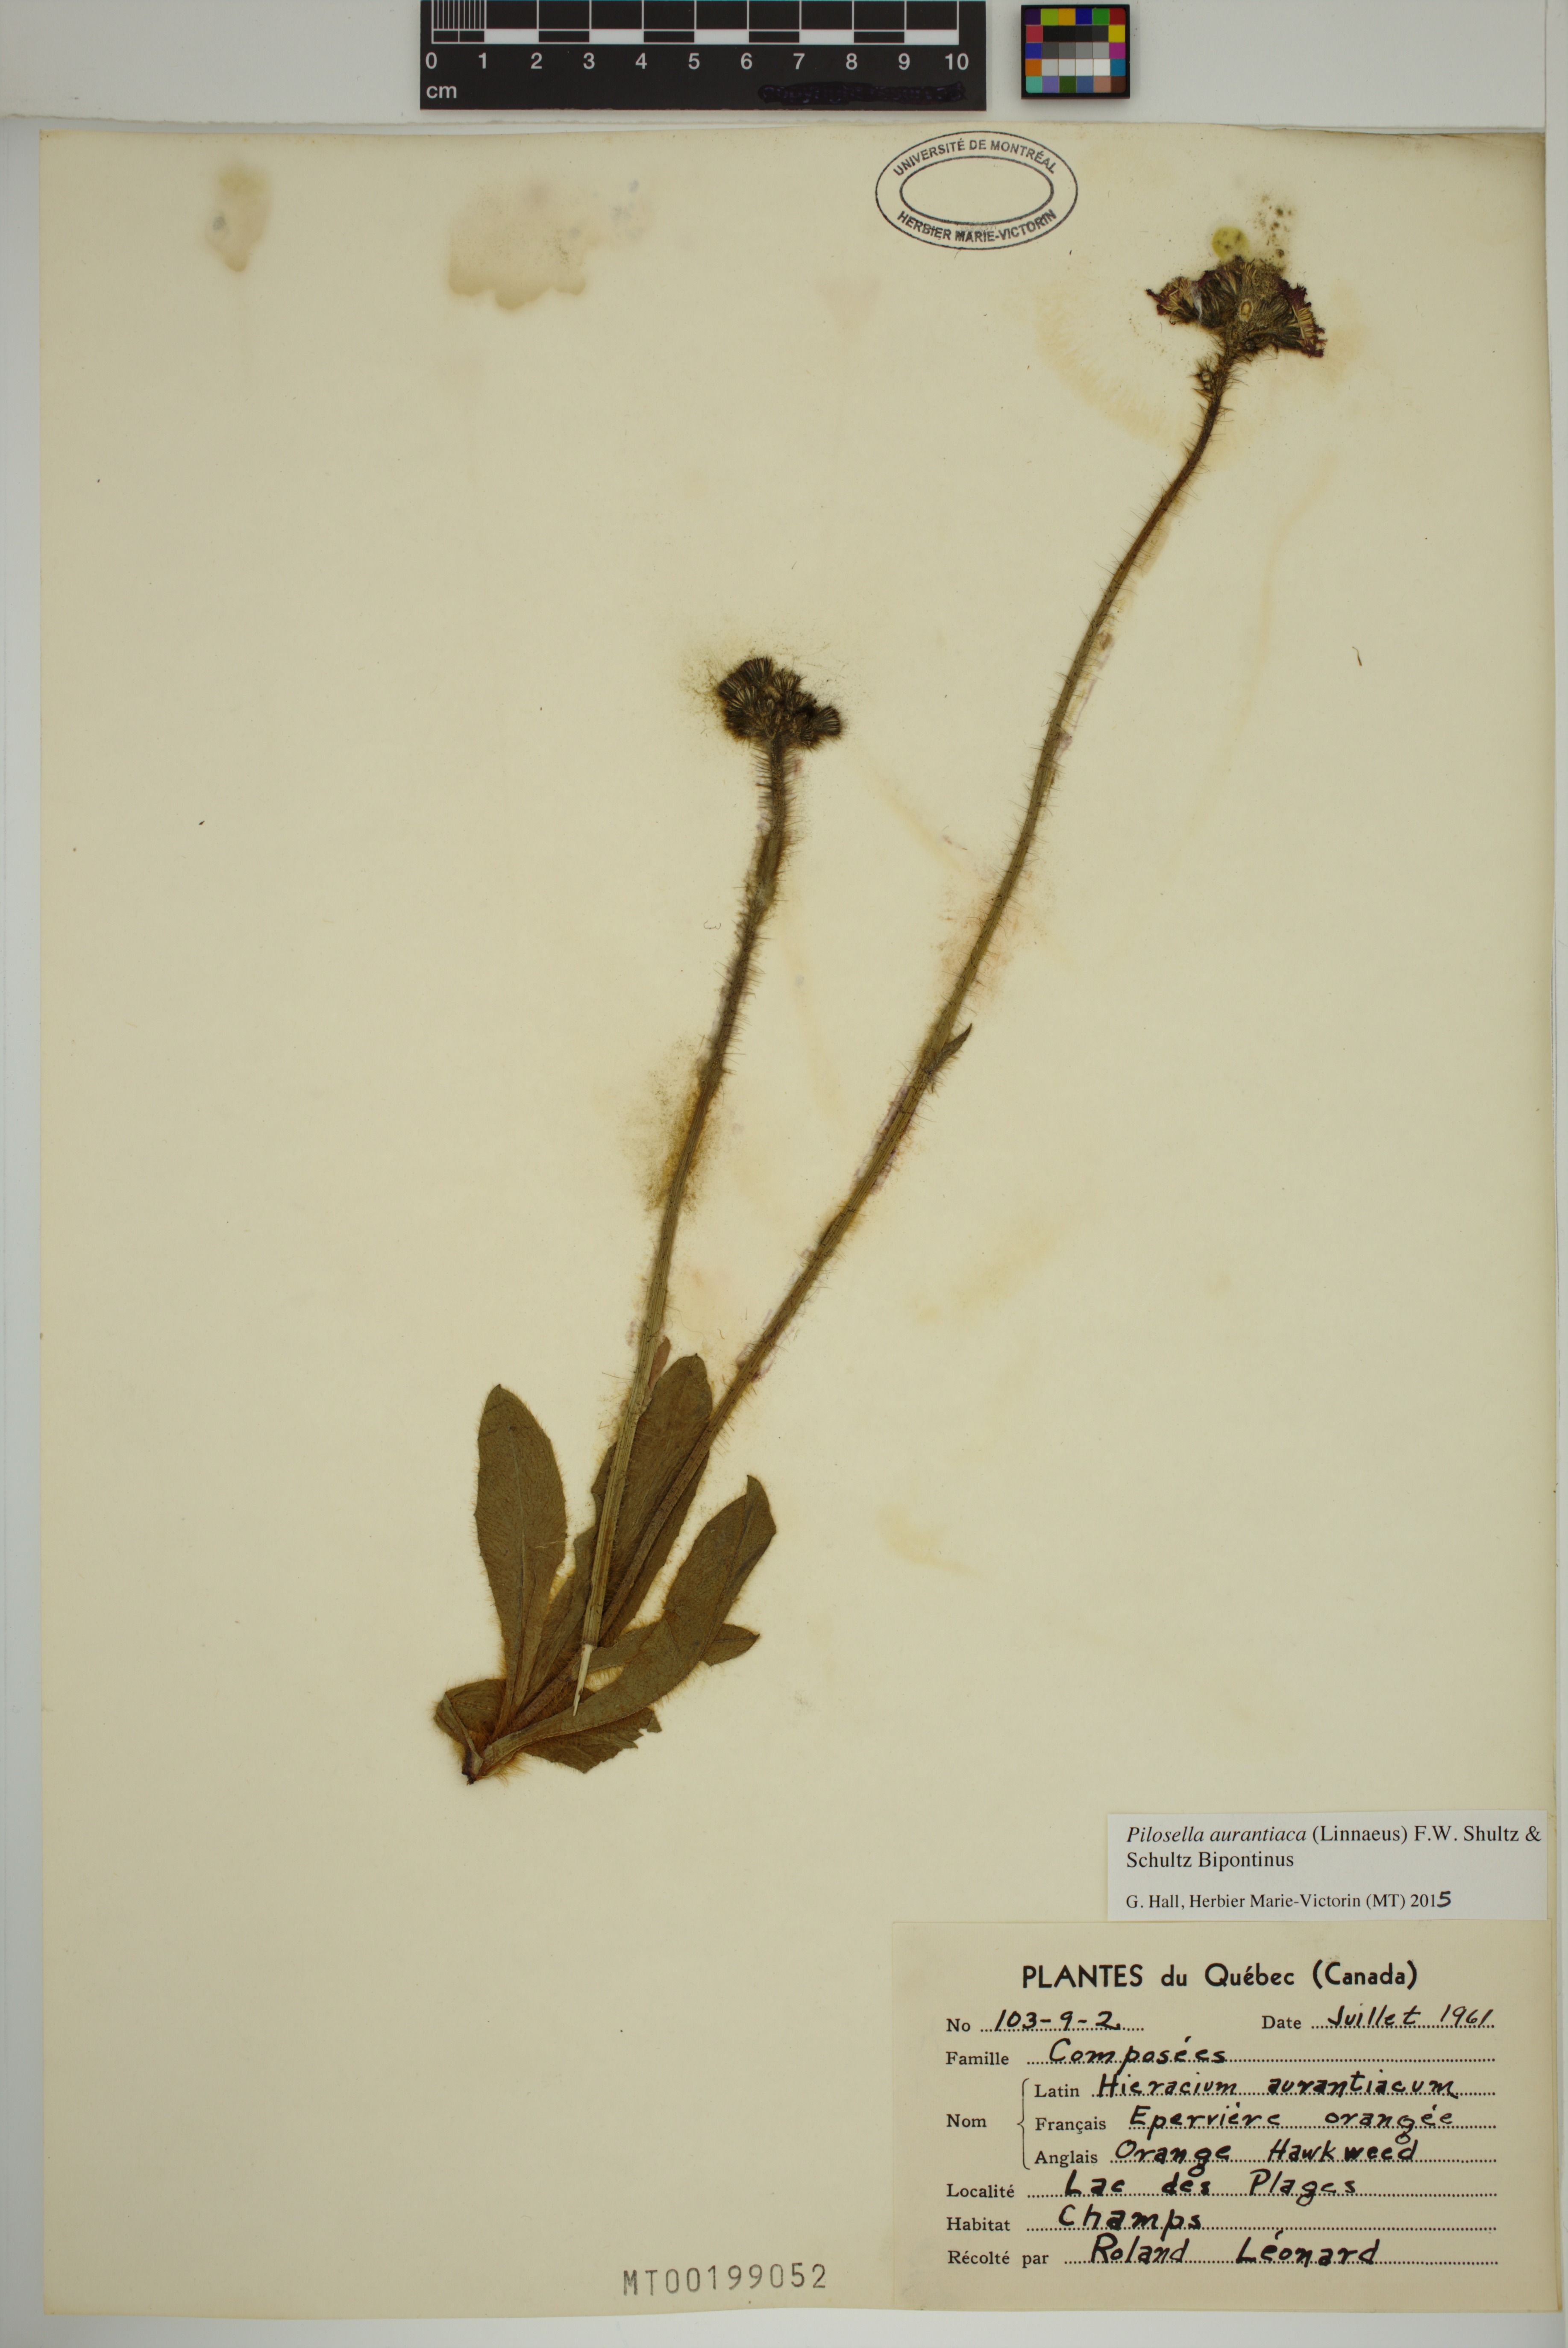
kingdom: Plantae
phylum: Tracheophyta
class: Magnoliopsida
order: Asterales
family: Asteraceae
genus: Pilosella
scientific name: Pilosella aurantiaca
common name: Fox-and-cubs
